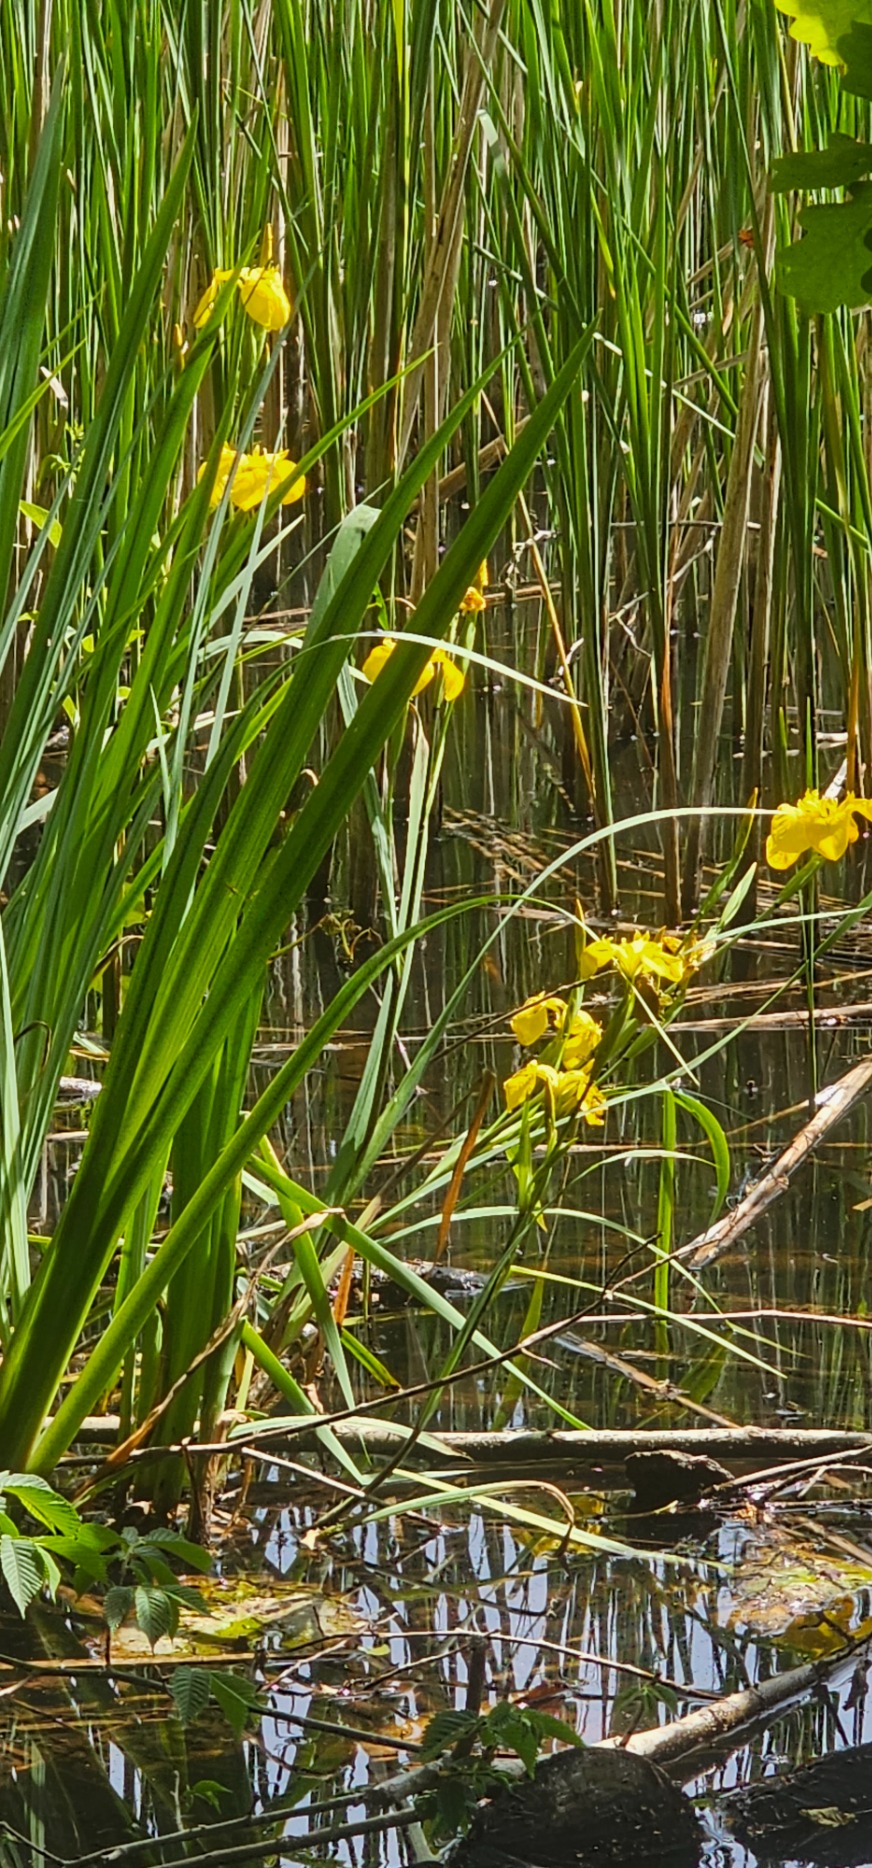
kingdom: Plantae
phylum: Tracheophyta
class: Liliopsida
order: Asparagales
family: Iridaceae
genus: Iris
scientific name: Iris pseudacorus
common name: Gul iris
